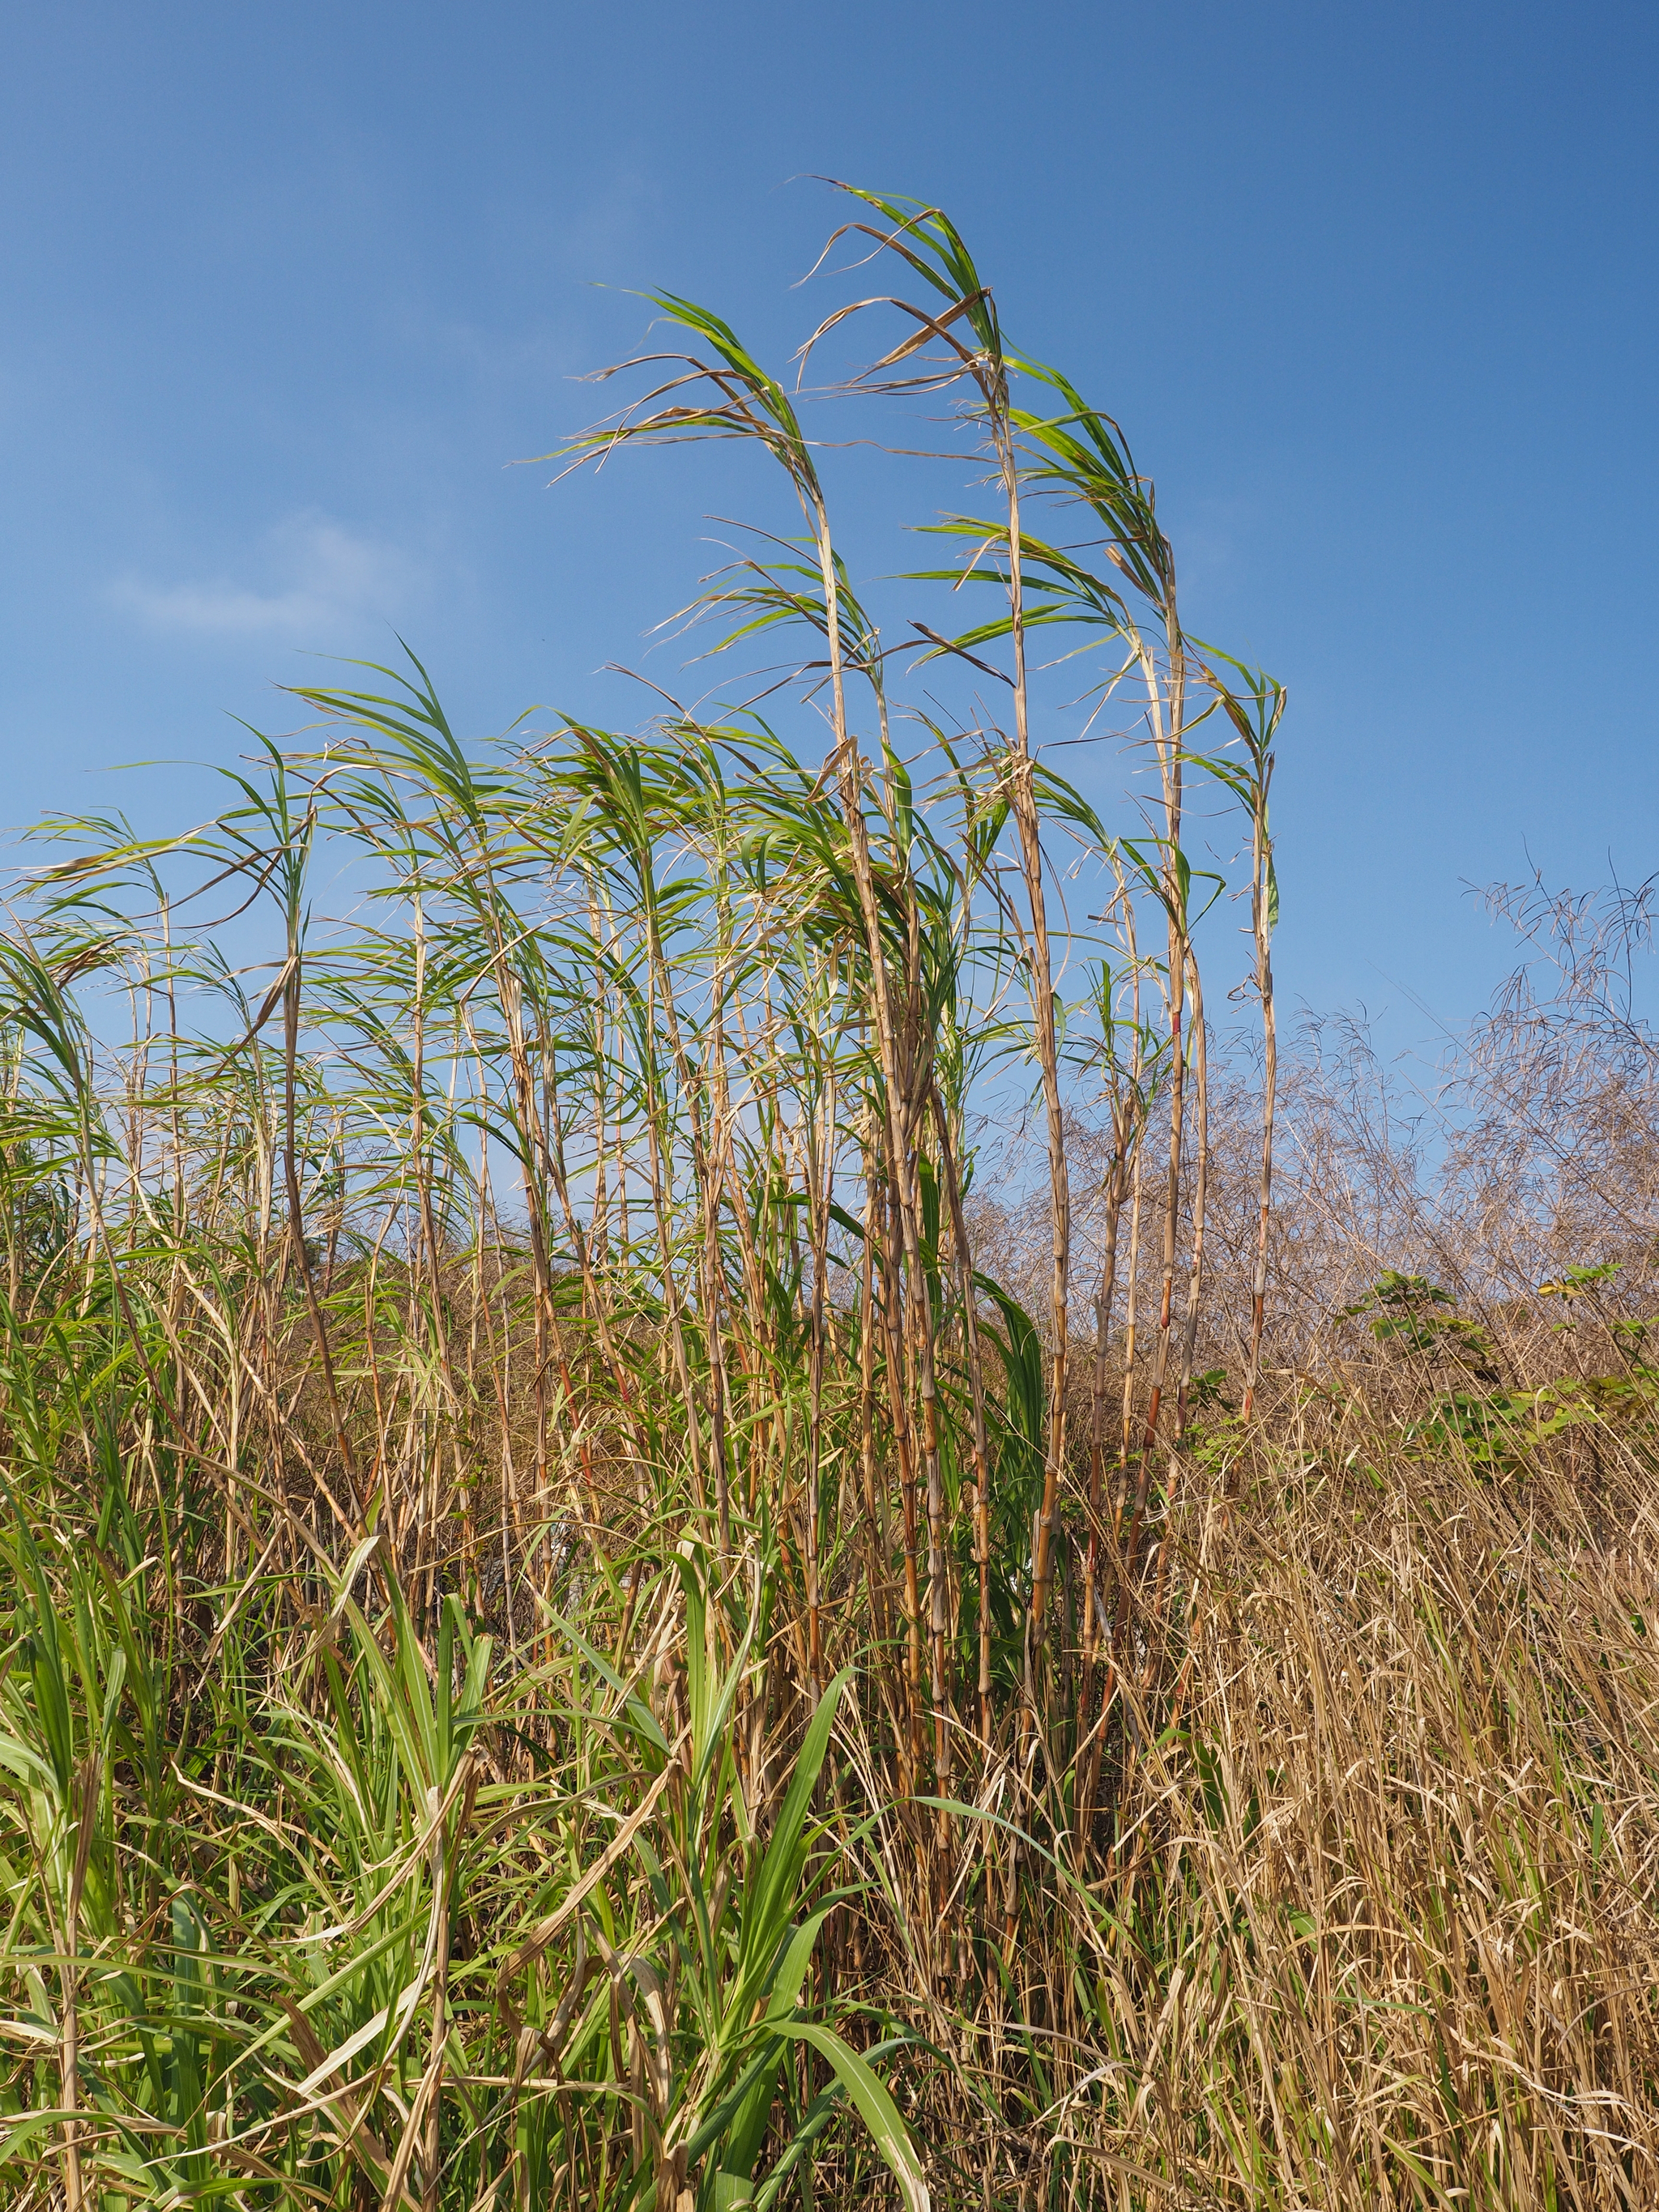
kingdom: Plantae
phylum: Tracheophyta
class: Liliopsida
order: Poales
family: Poaceae
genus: Cenchrus
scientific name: Cenchrus purpureus
